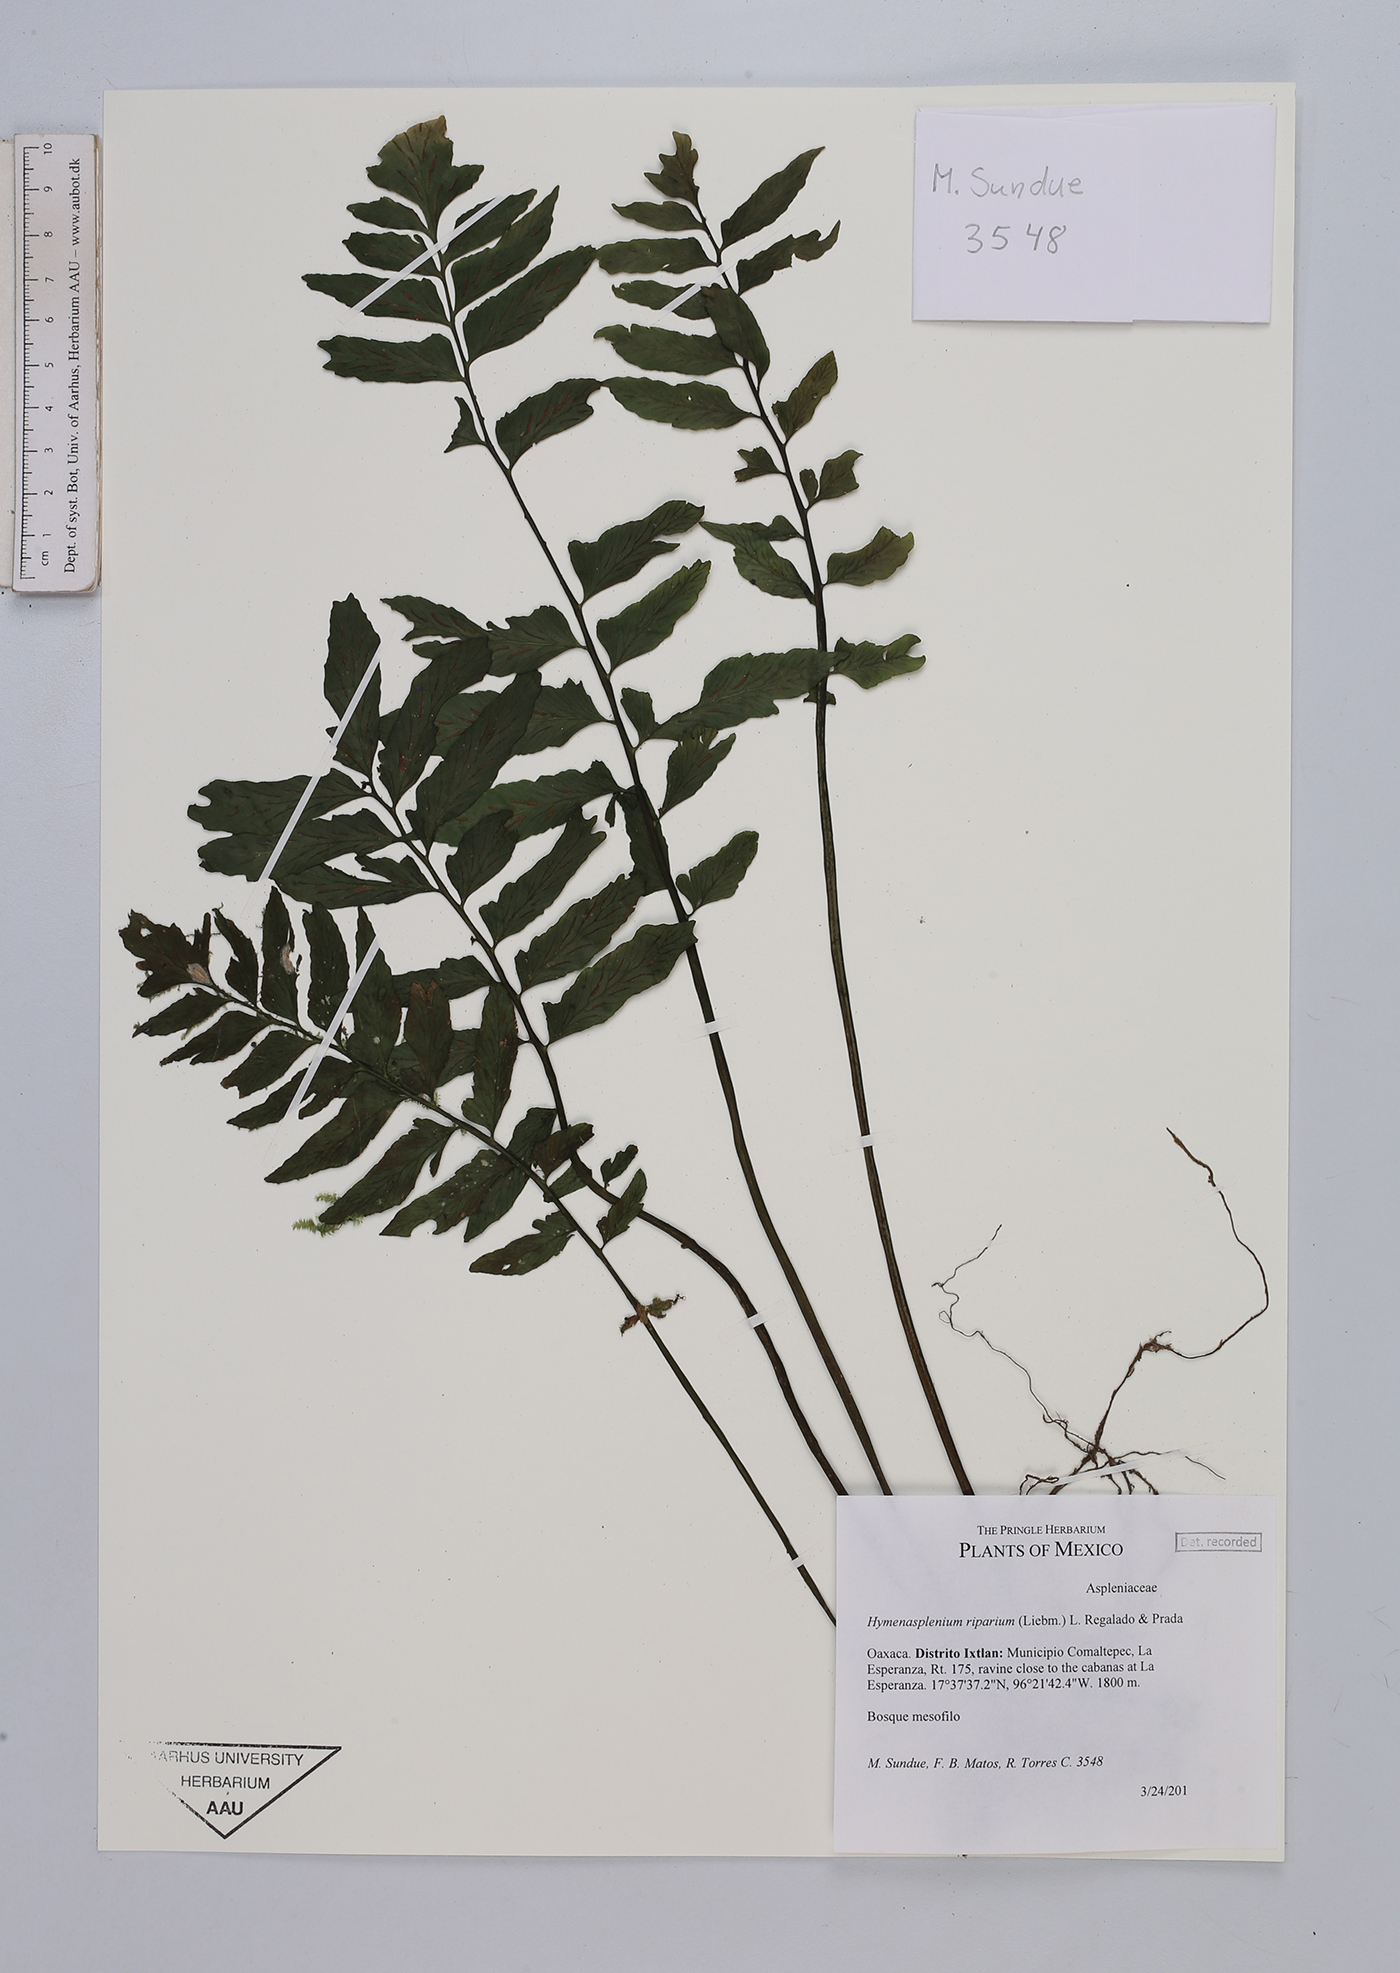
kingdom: Plantae
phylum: Tracheophyta
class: Polypodiopsida
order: Polypodiales
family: Aspleniaceae
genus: Hymenasplenium
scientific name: Hymenasplenium riparium
